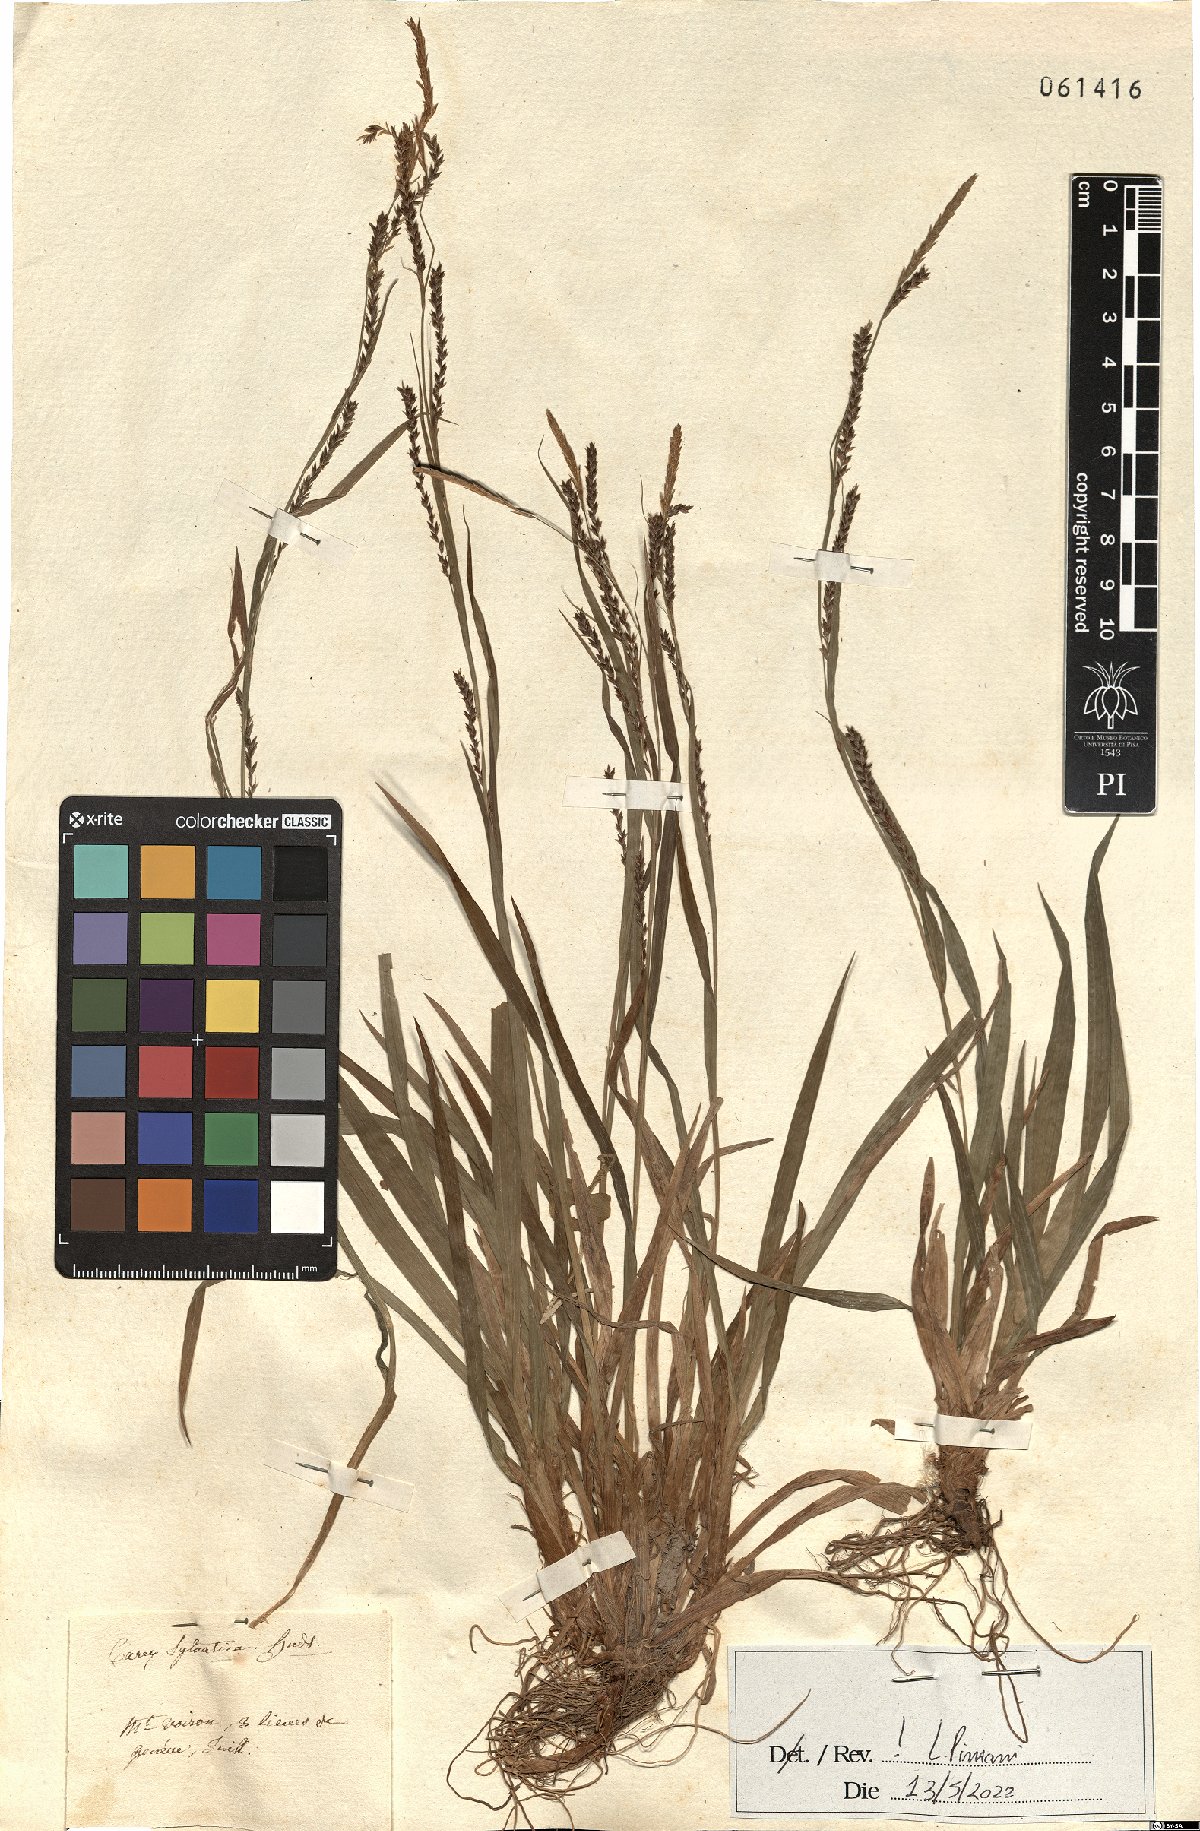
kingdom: Plantae
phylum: Tracheophyta
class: Liliopsida
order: Poales
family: Cyperaceae
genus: Carex
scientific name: Carex sylvatica
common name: Wood-sedge
